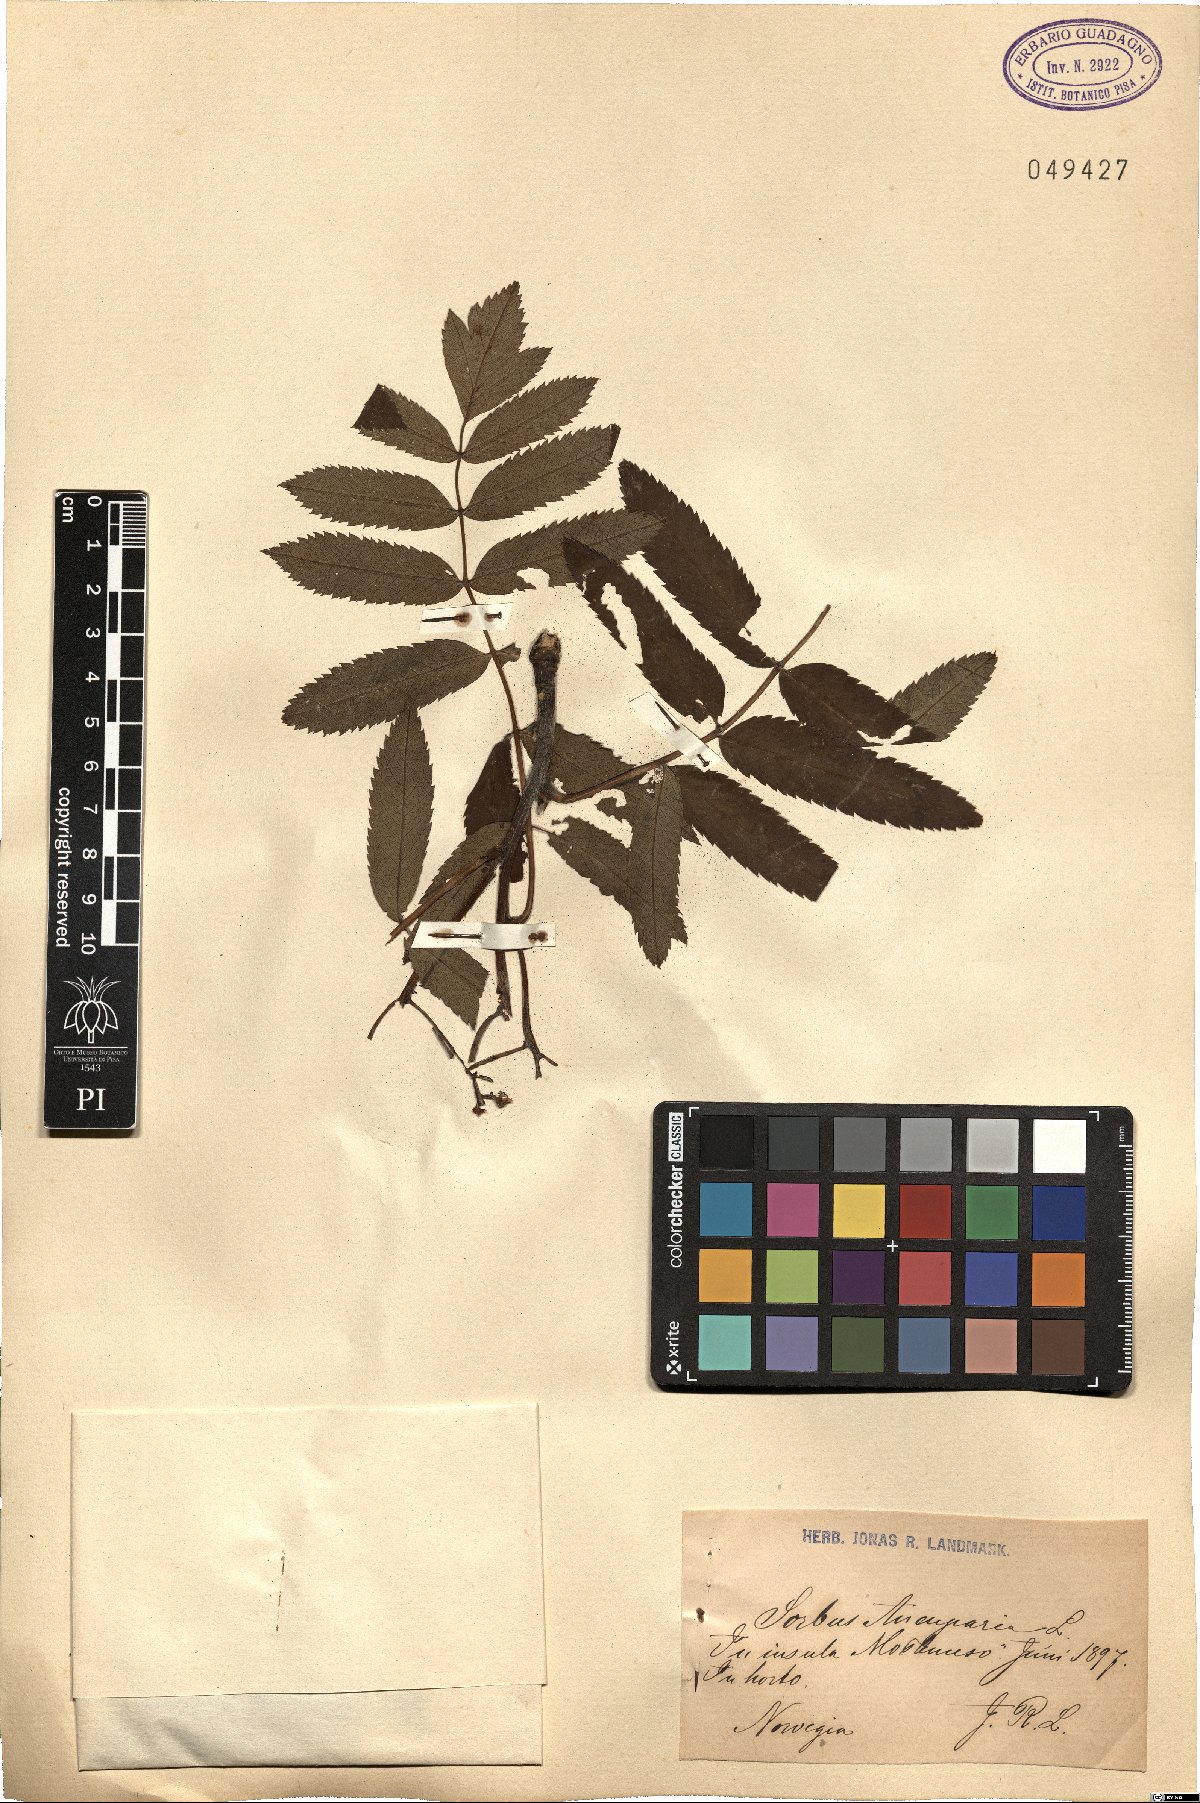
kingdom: Plantae
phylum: Tracheophyta
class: Magnoliopsida
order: Rosales
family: Rosaceae
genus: Sorbus
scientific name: Sorbus aucuparia
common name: Rowan
